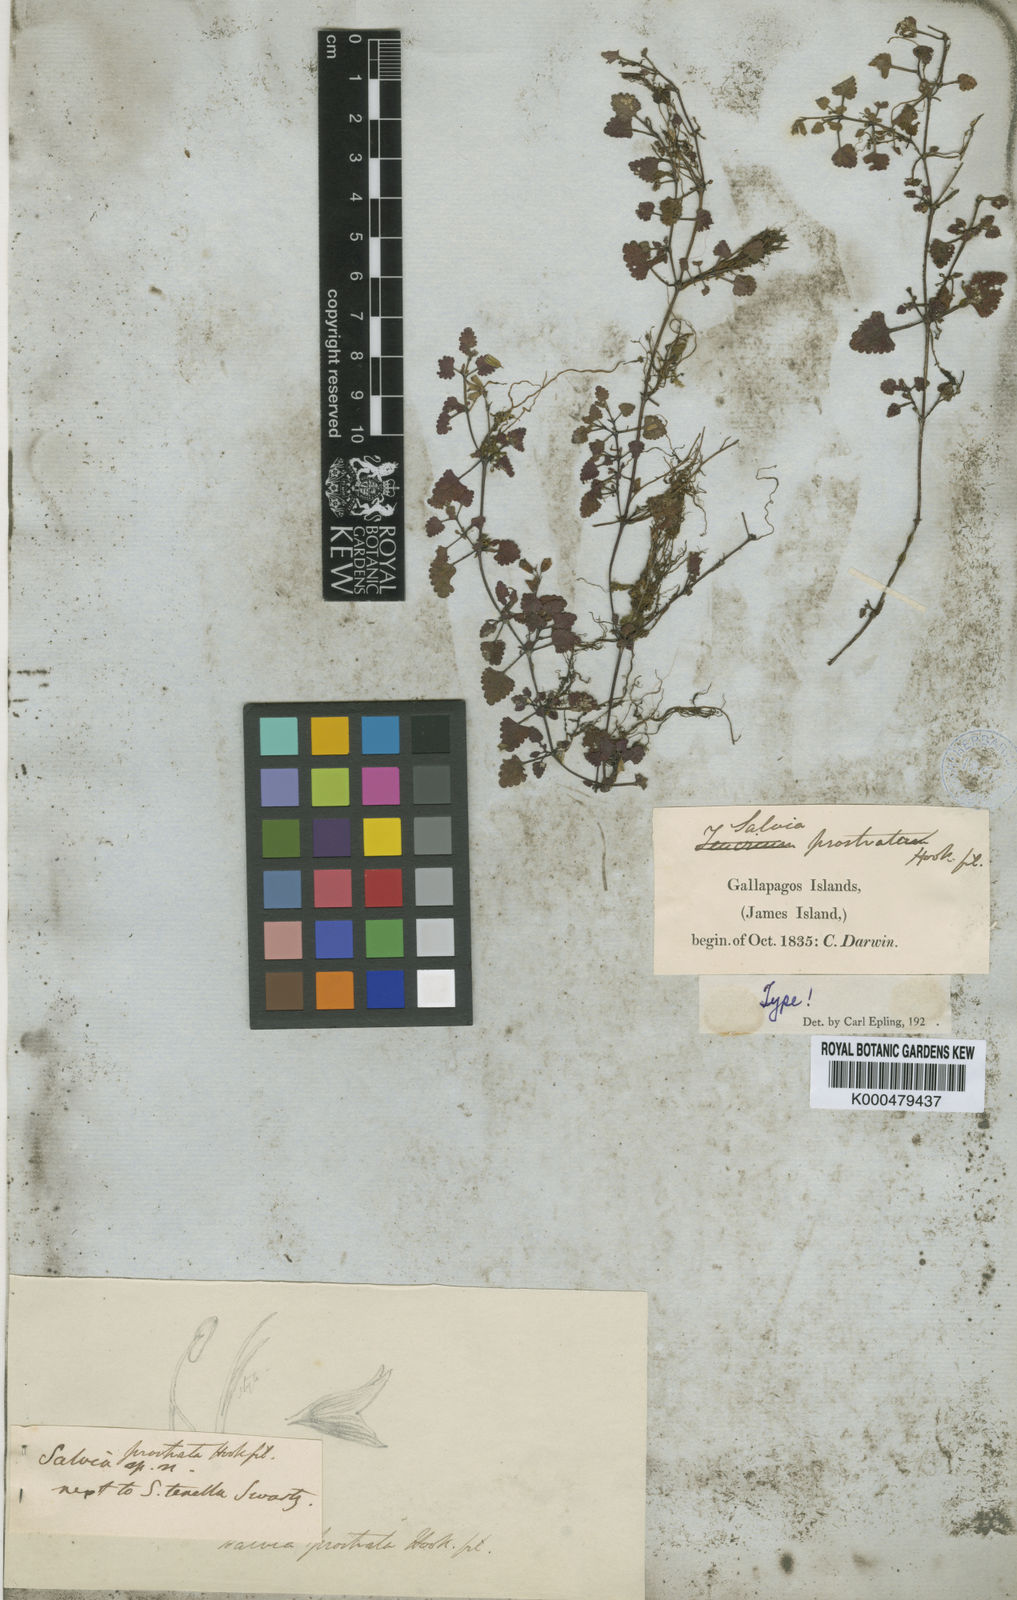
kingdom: Plantae
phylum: Tracheophyta
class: Magnoliopsida
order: Lamiales
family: Lamiaceae
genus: Salvia
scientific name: Salvia prostrata
